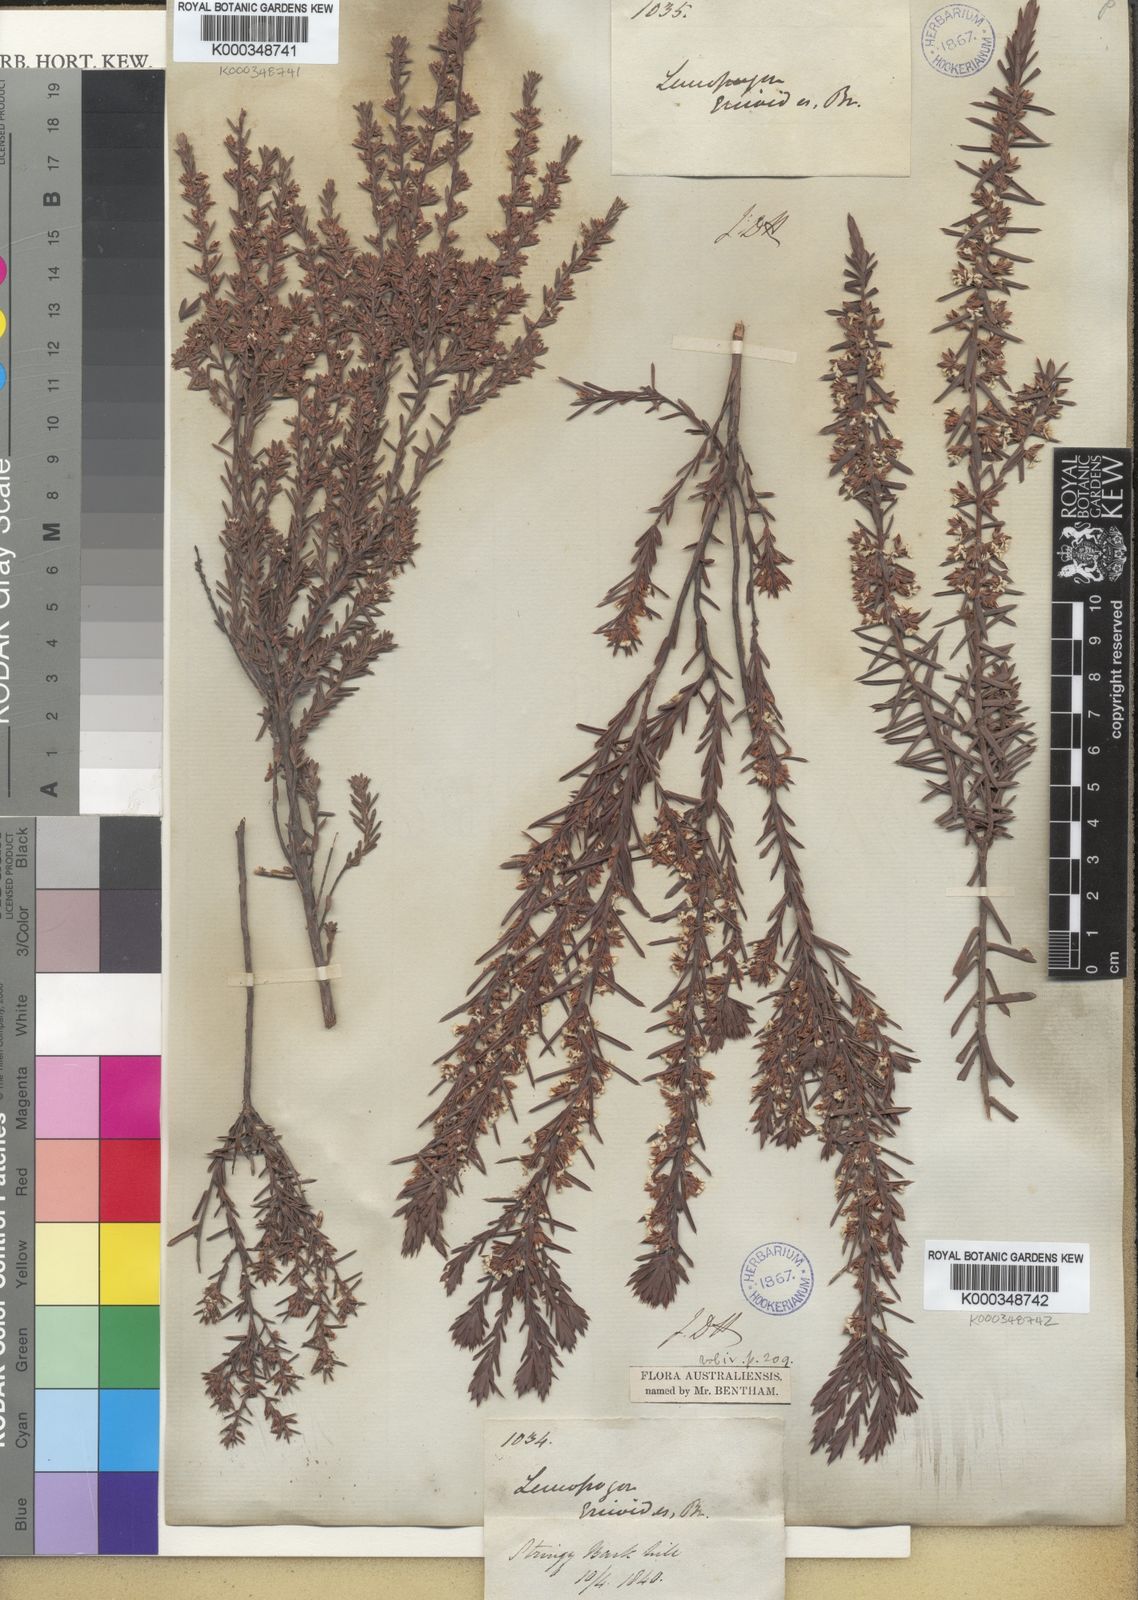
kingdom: Plantae
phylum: Tracheophyta
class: Magnoliopsida
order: Ericales
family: Ericaceae
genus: Styphelia
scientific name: Styphelia ericoides
